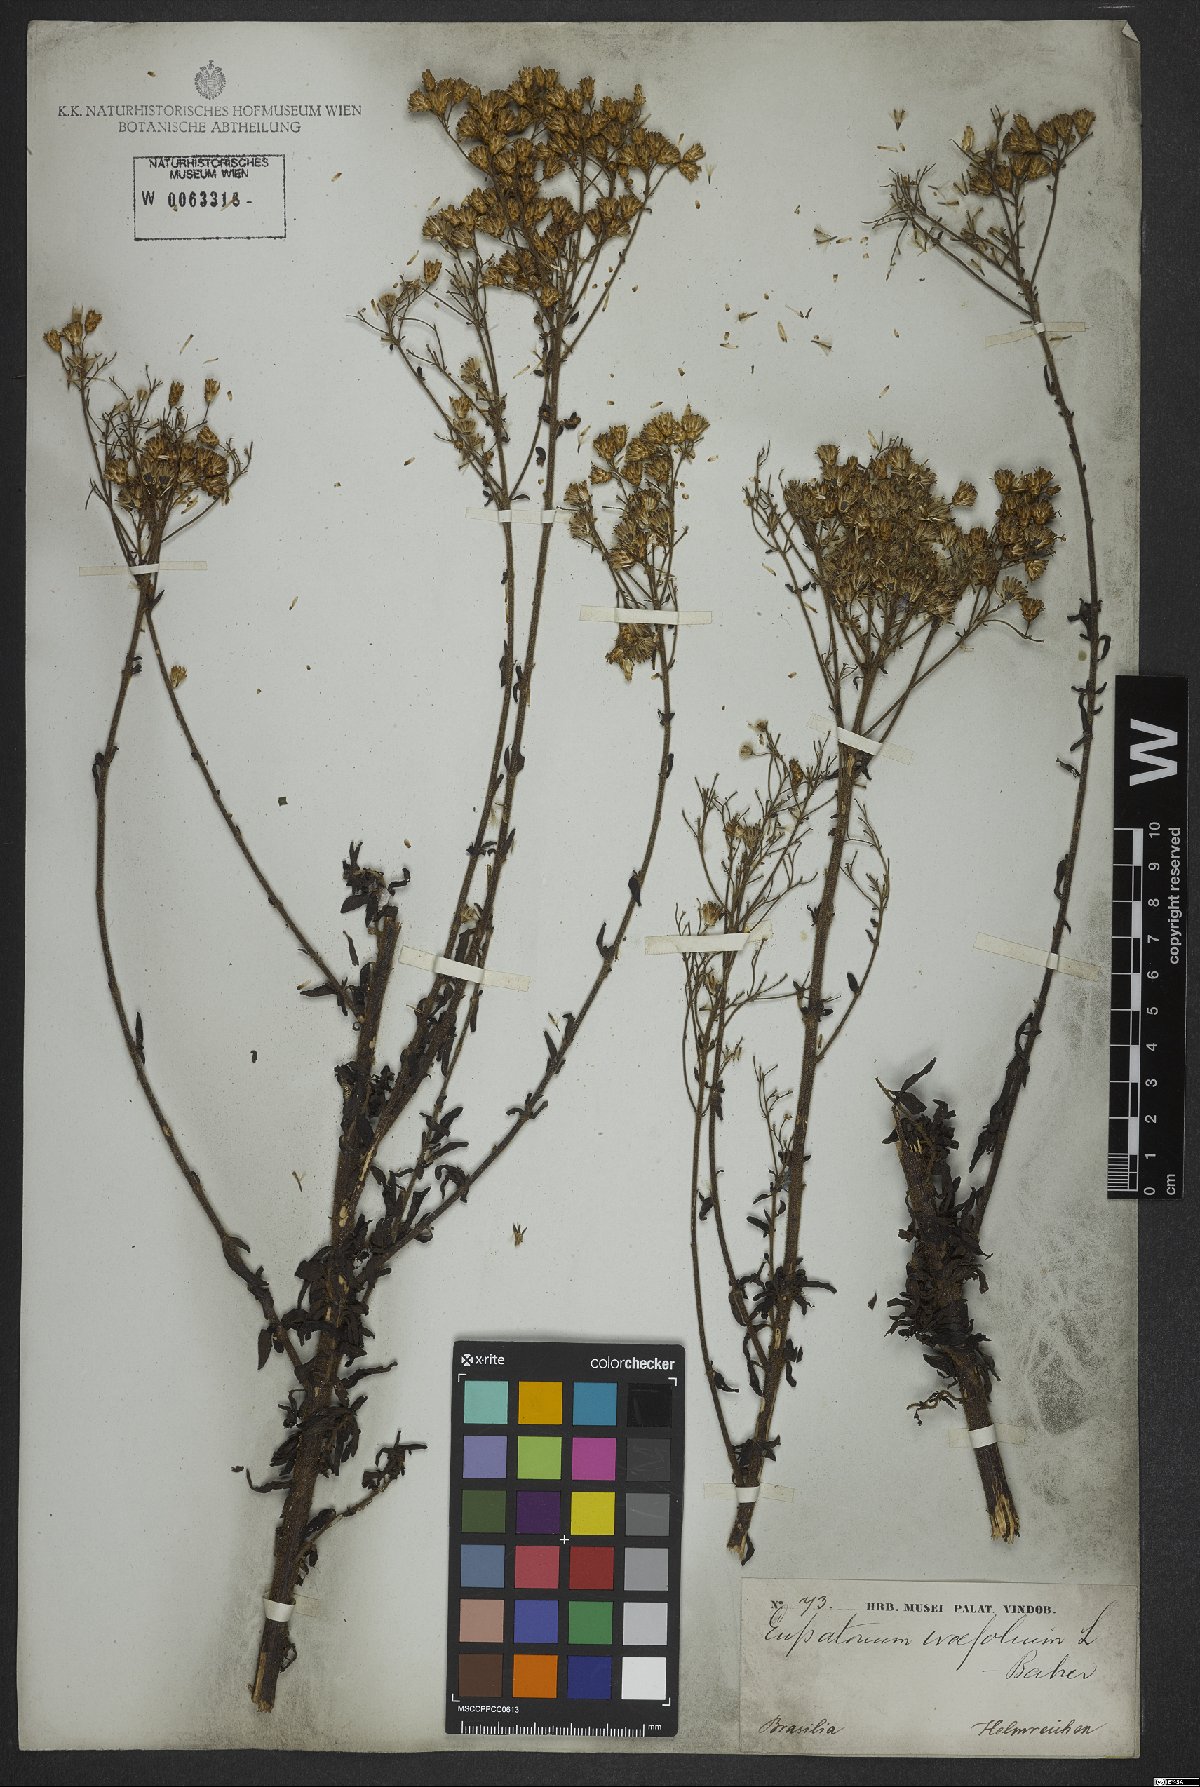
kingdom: Plantae
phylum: Tracheophyta
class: Magnoliopsida
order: Asterales
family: Asteraceae
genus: Chromolaena
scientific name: Chromolaena ivifolia
